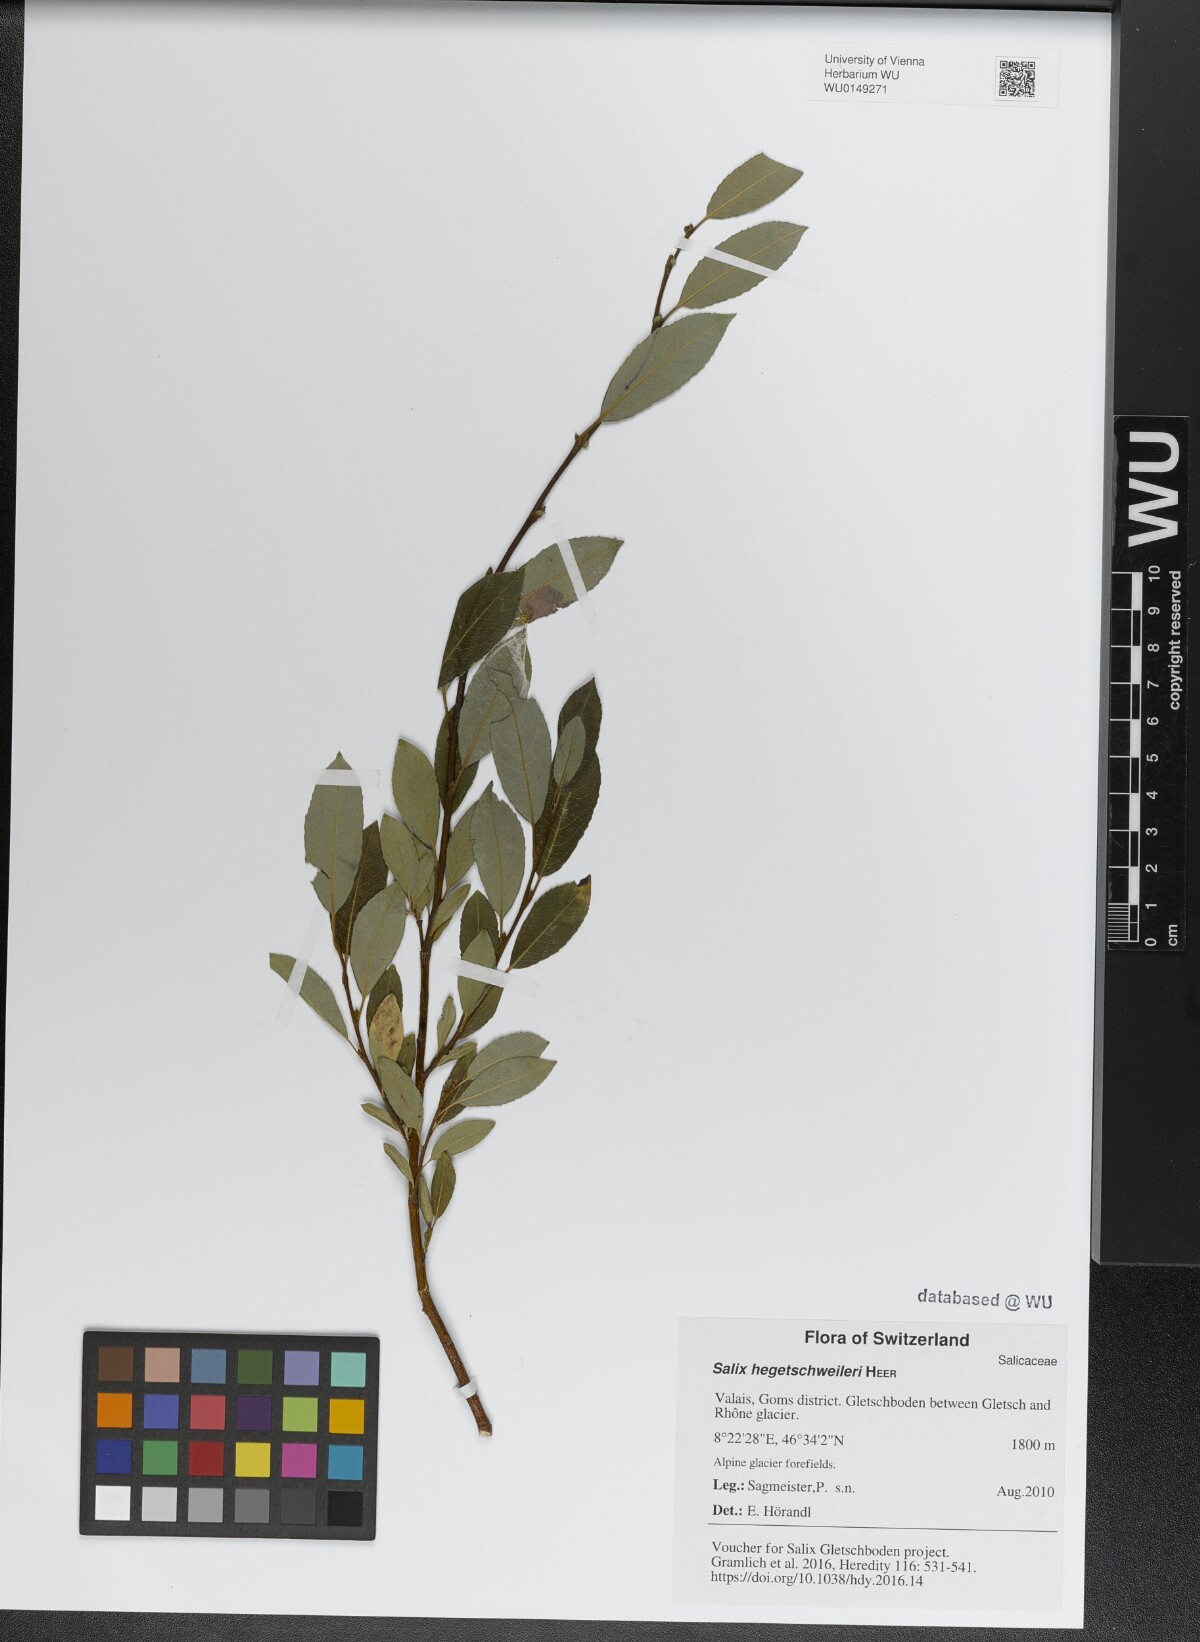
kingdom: Plantae
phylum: Tracheophyta
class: Magnoliopsida
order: Malpighiales
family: Salicaceae
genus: Salix
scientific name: Salix hegetschweileri
